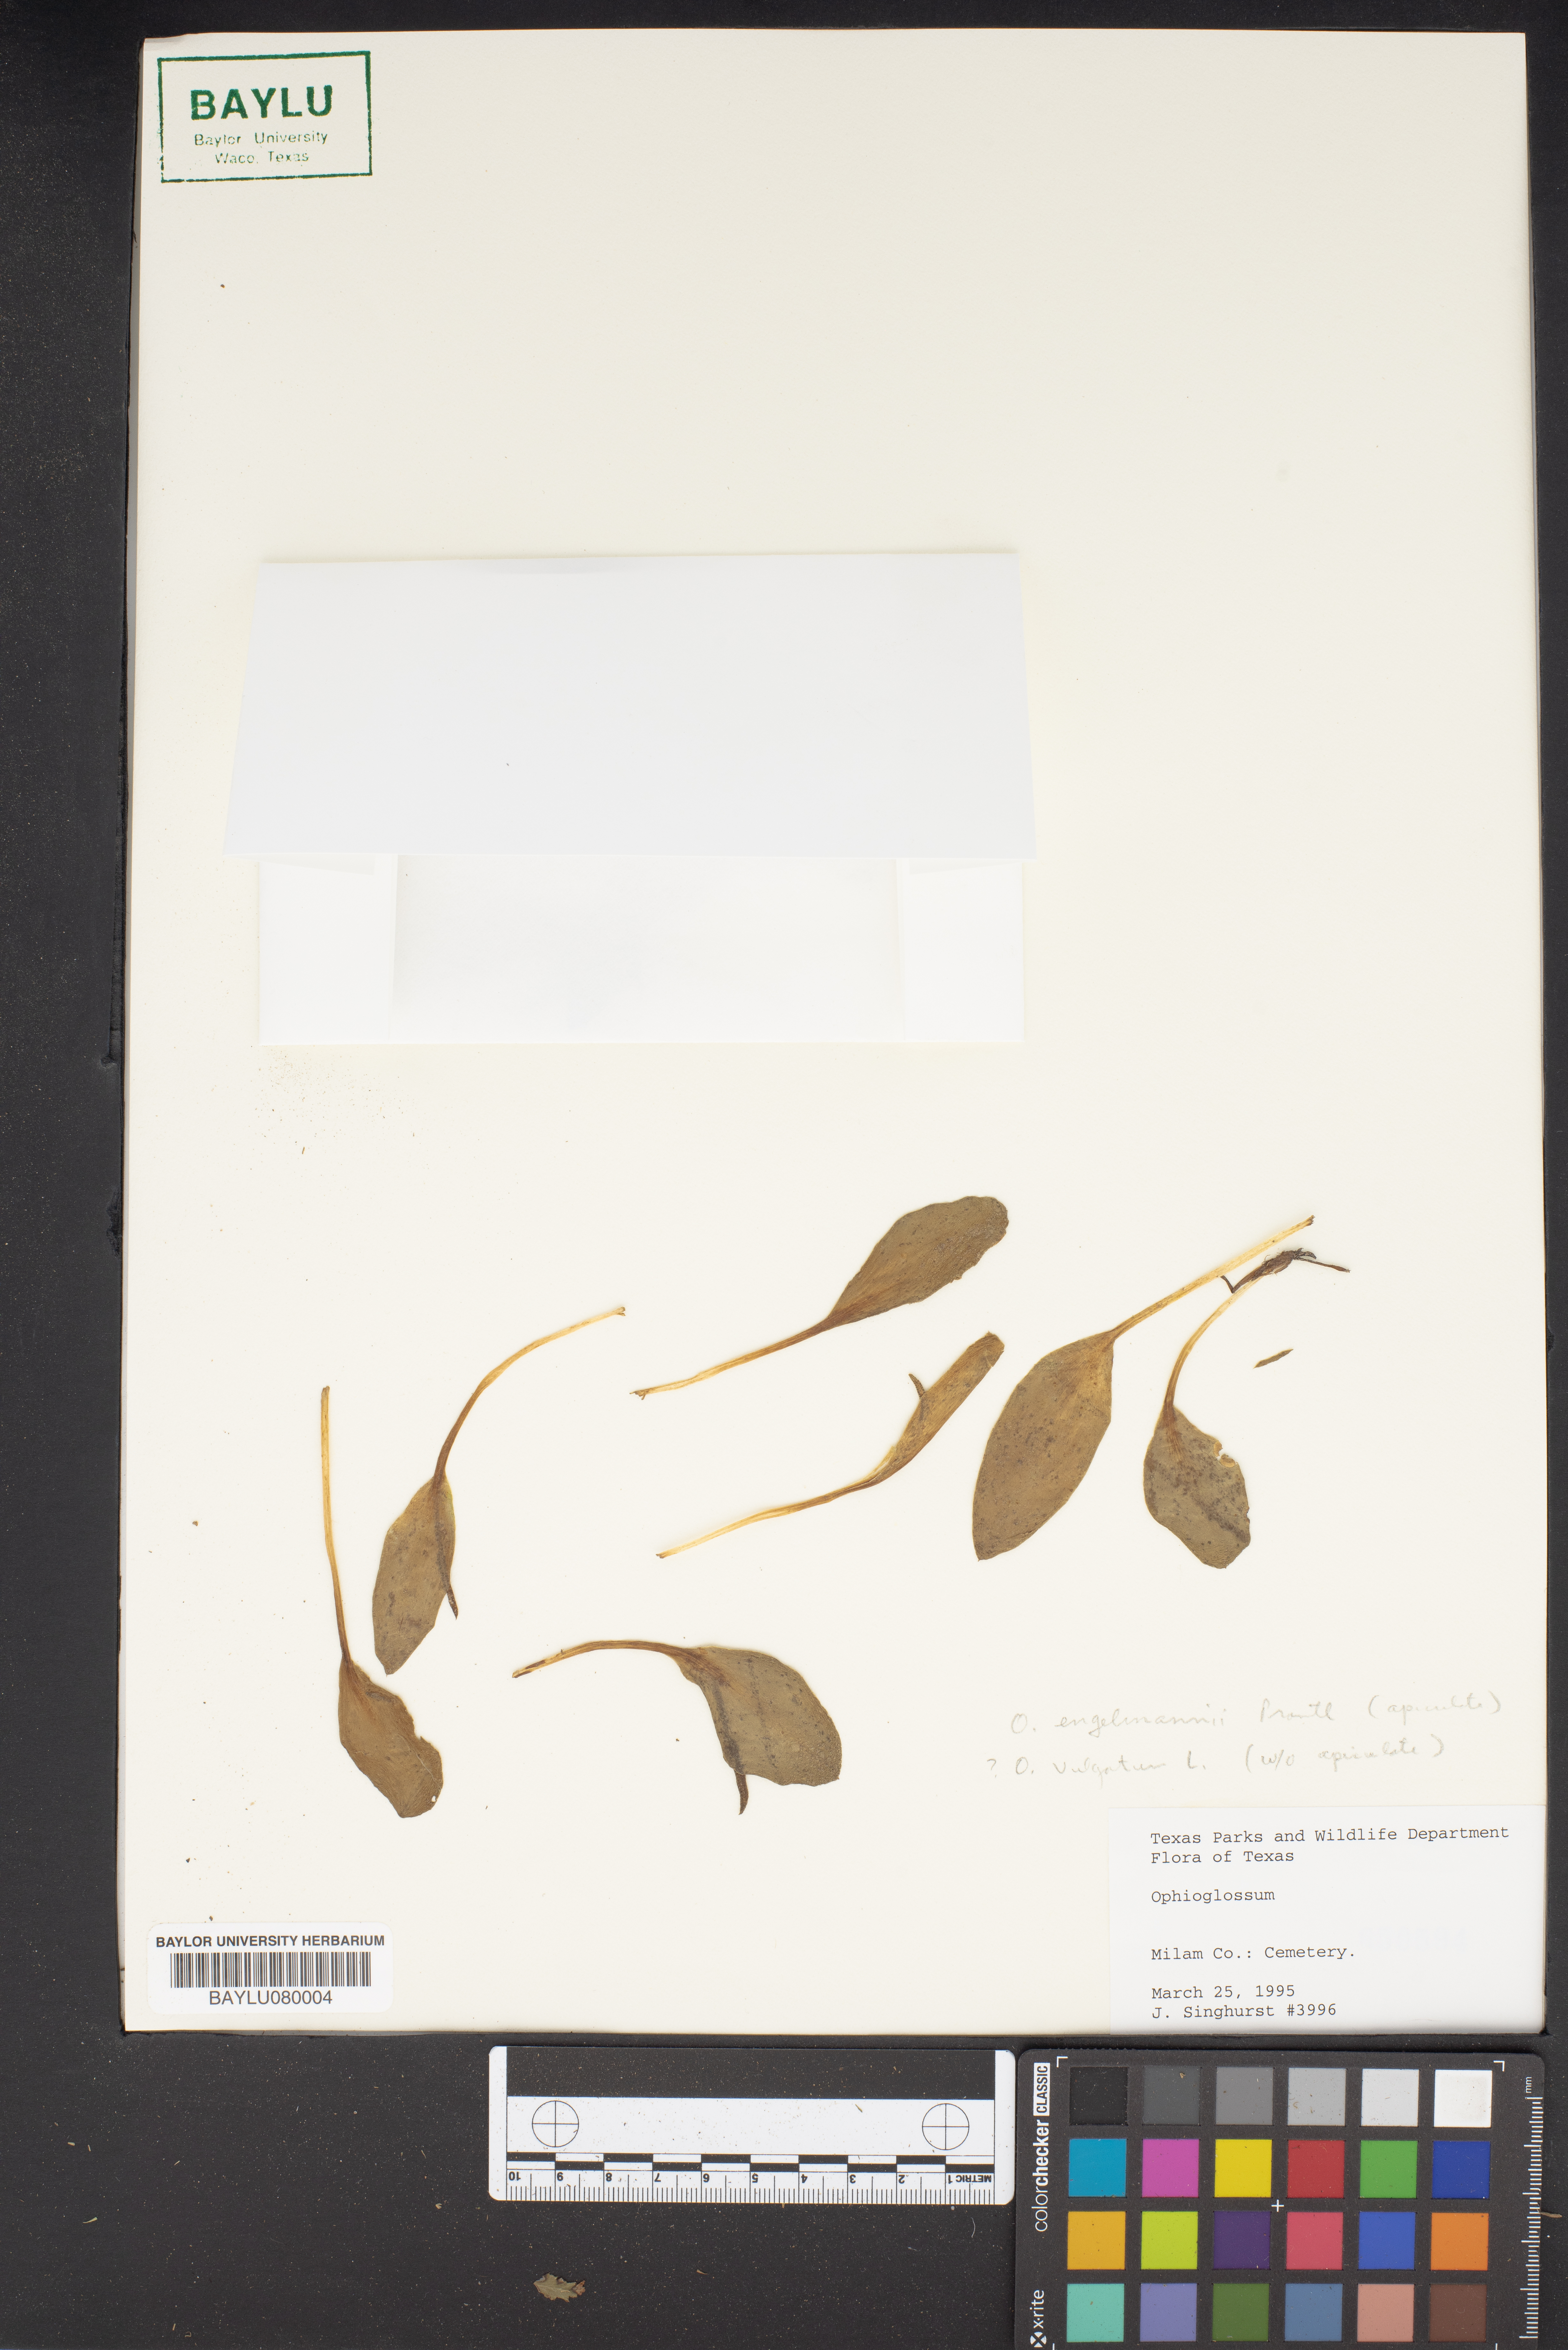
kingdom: Plantae
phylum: Tracheophyta
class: Polypodiopsida
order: Ophioglossales
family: Ophioglossaceae
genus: Ophioglossum
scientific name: Ophioglossum
